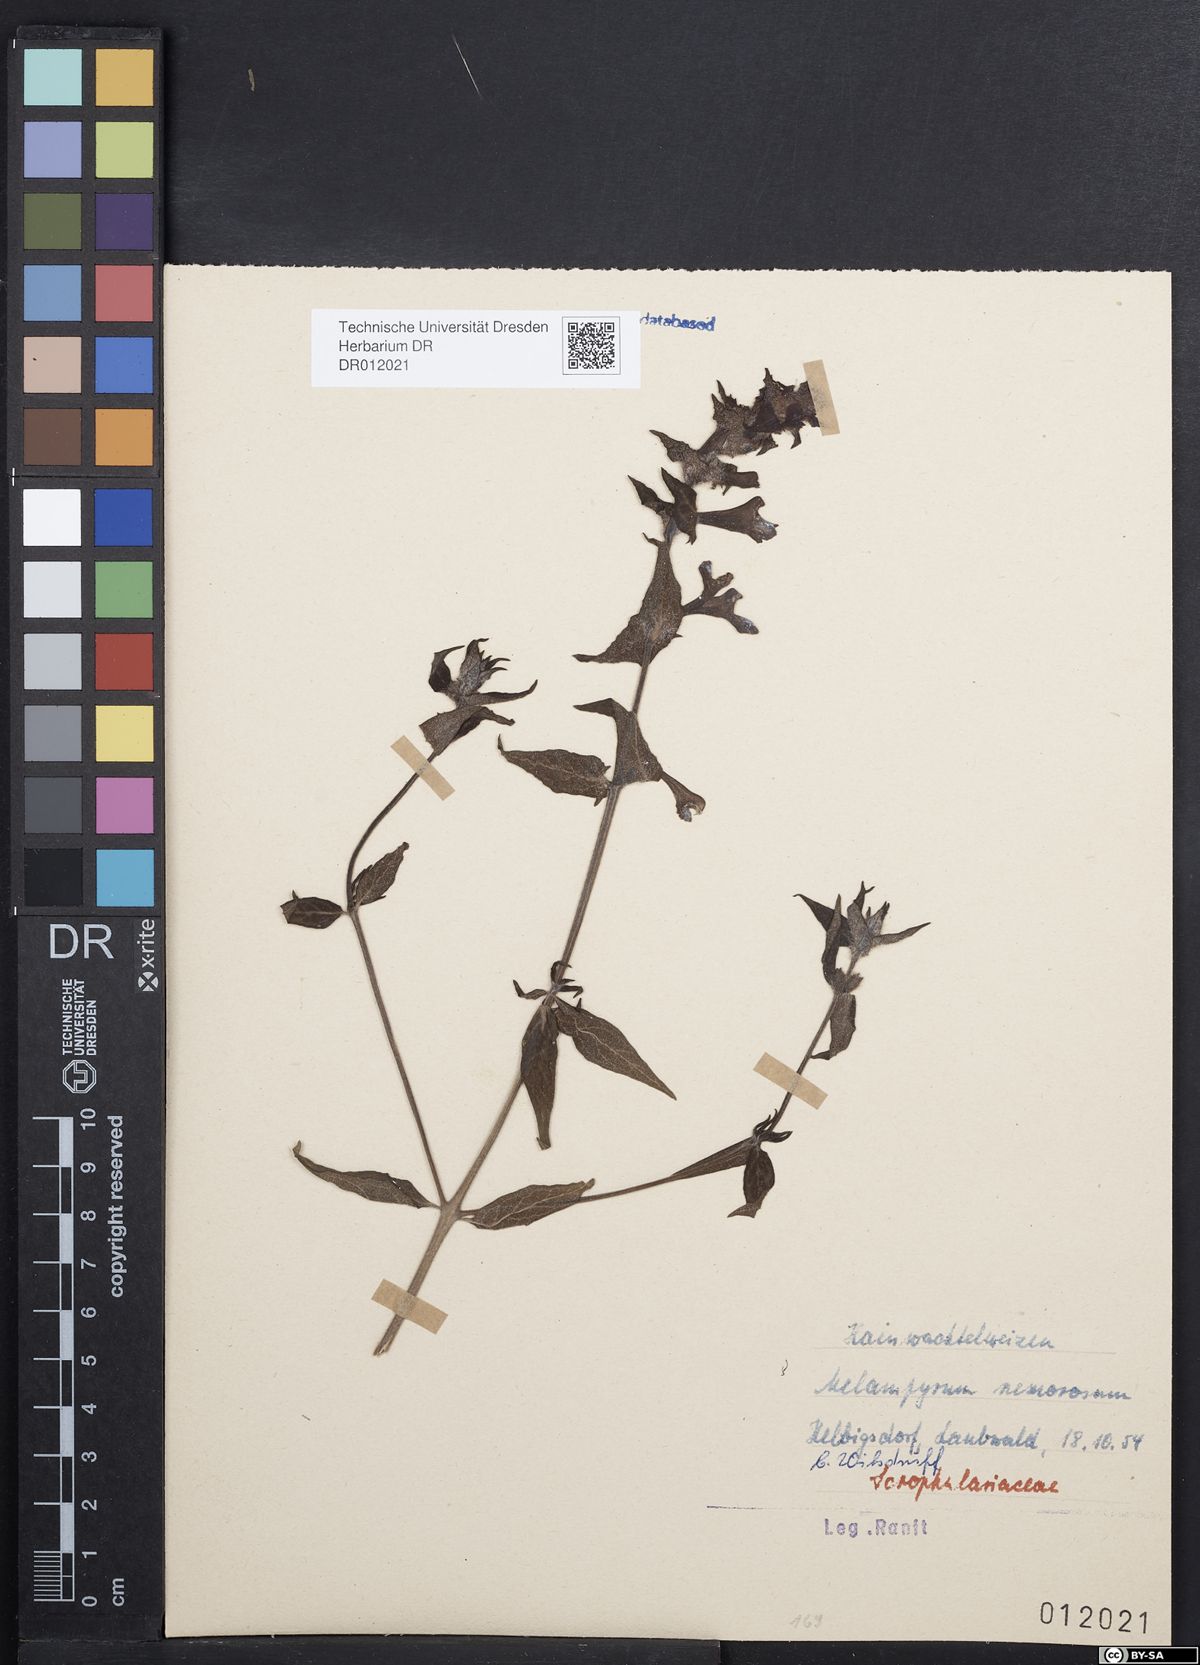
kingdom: Plantae
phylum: Tracheophyta
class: Magnoliopsida
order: Lamiales
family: Orobanchaceae
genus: Melampyrum
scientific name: Melampyrum nemorosum
